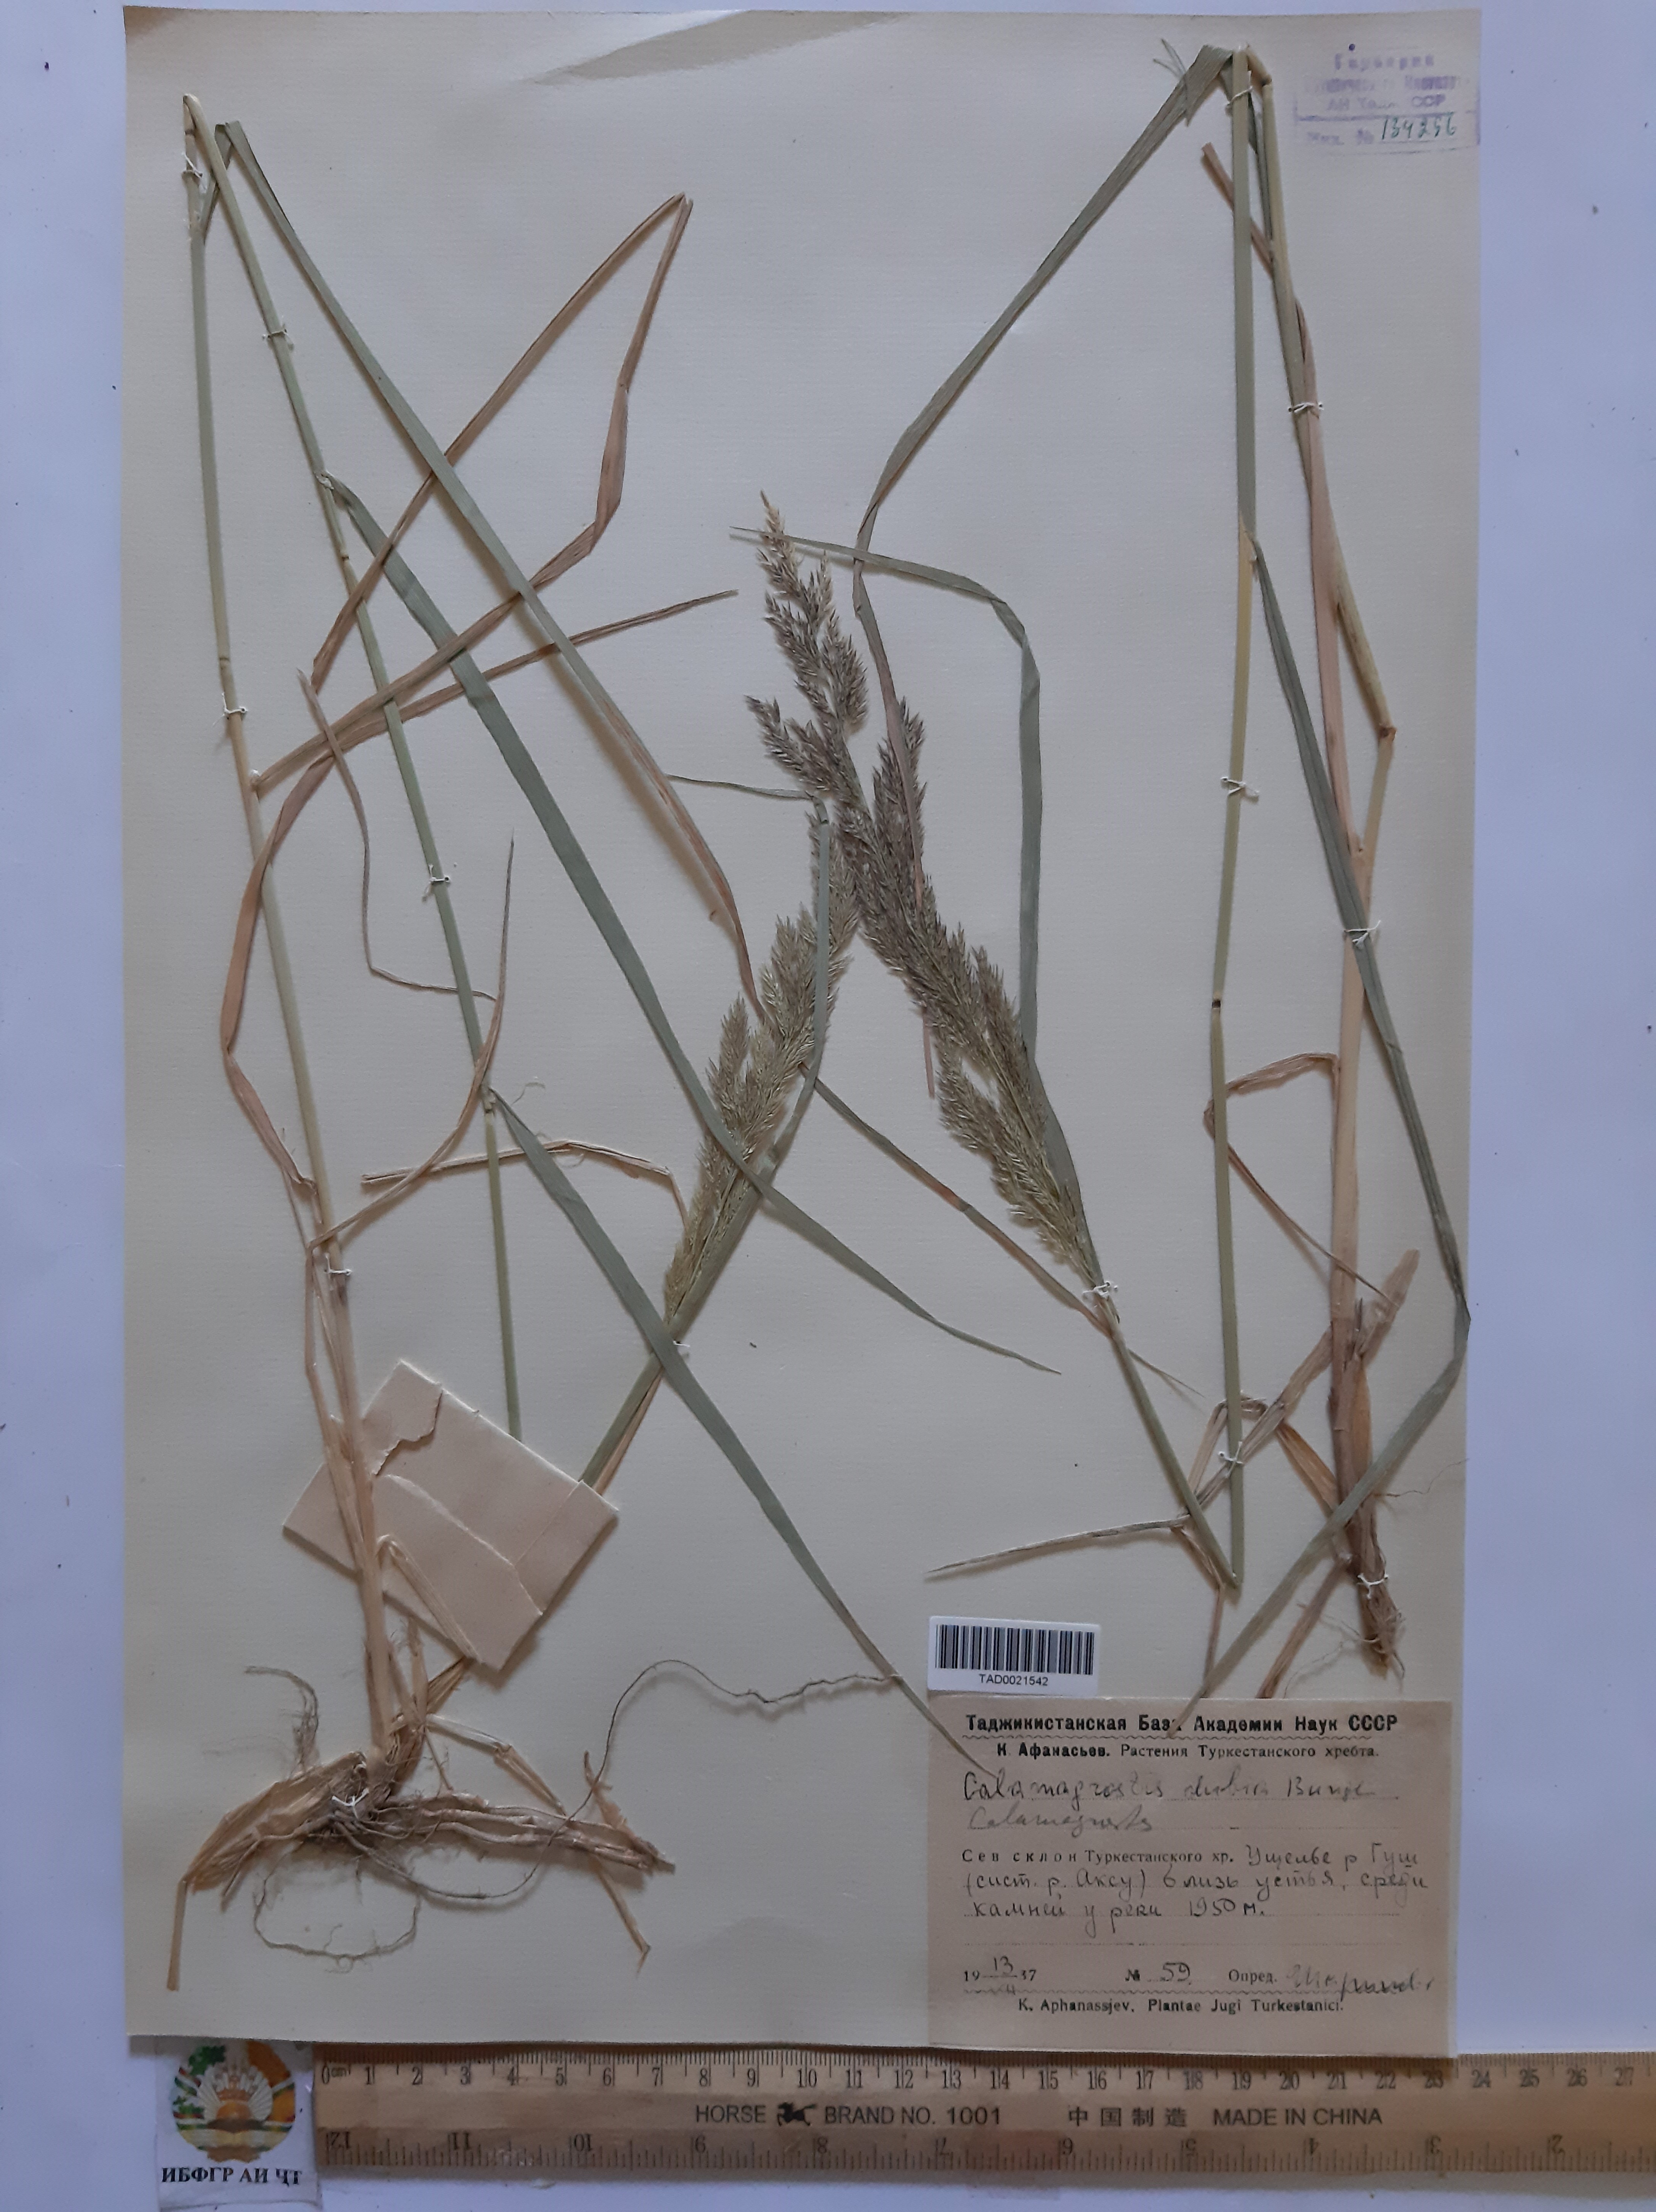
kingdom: Plantae
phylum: Tracheophyta
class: Liliopsida
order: Poales
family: Poaceae
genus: Calamagrostis
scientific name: Calamagrostis pseudophragmites
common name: Coastal small-reed
